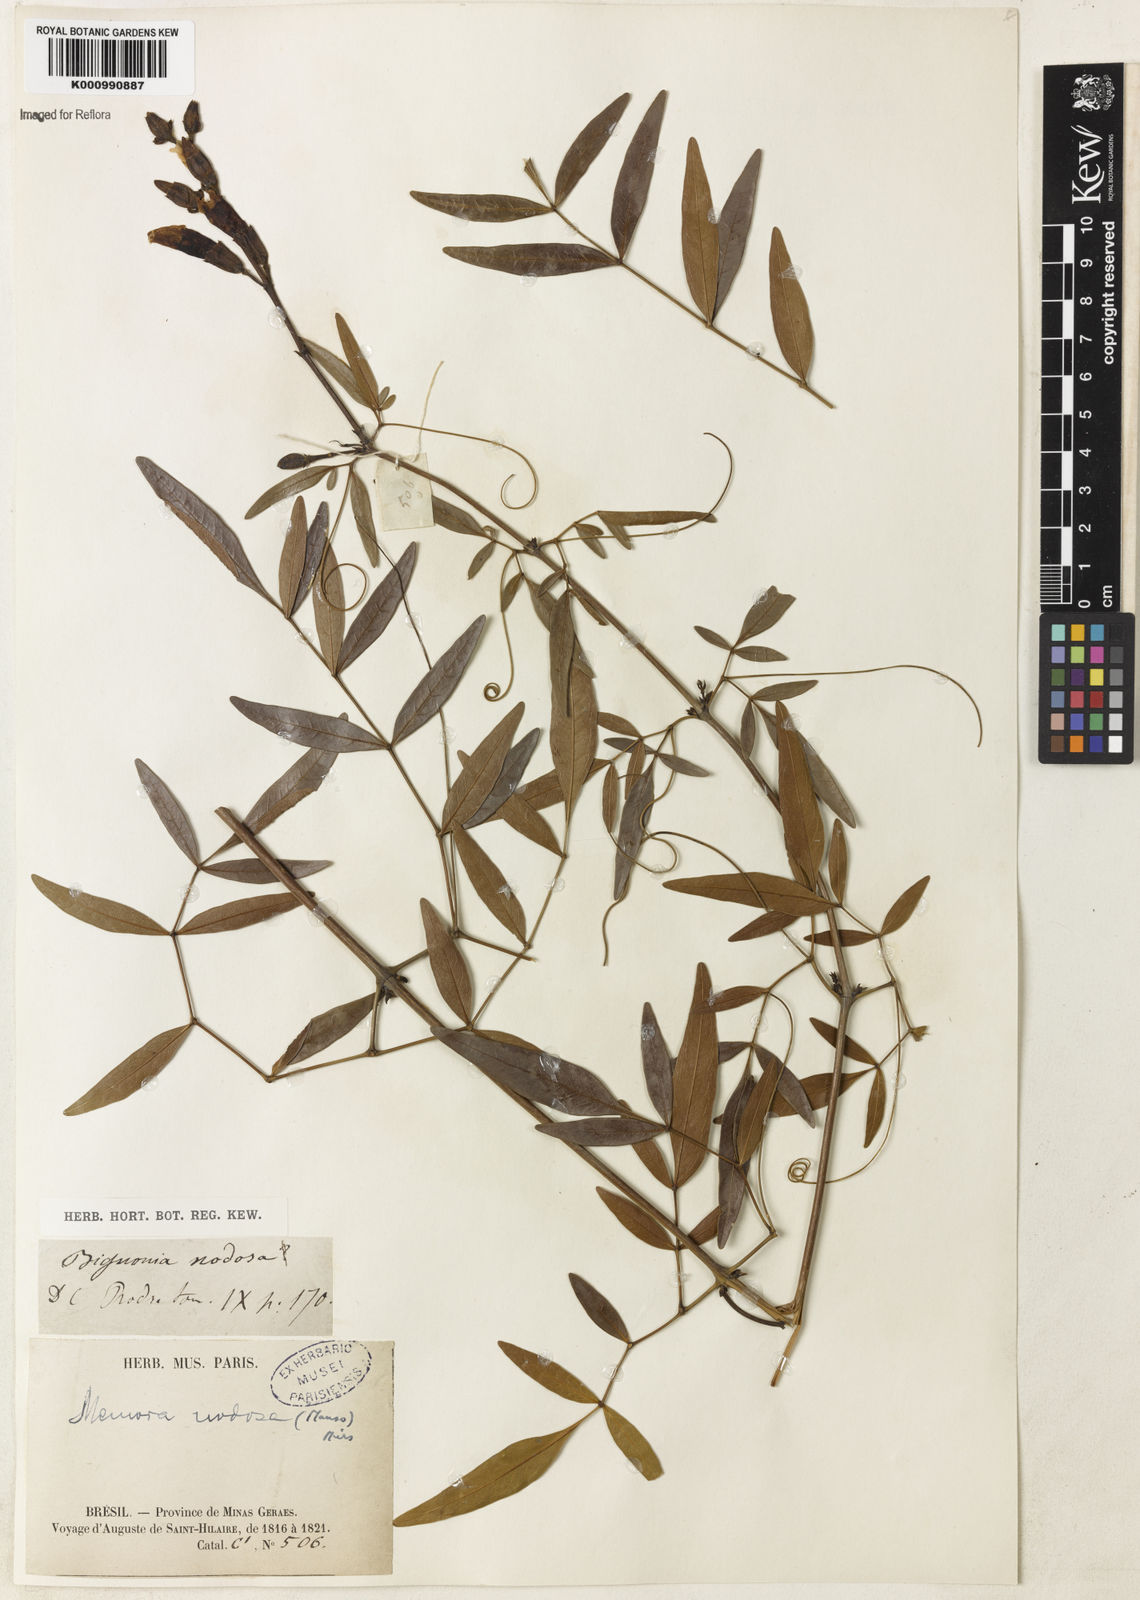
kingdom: Plantae
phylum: Tracheophyta
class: Magnoliopsida
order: Lamiales
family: Bignoniaceae
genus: Adenocalymma
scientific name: Adenocalymma nodosum
